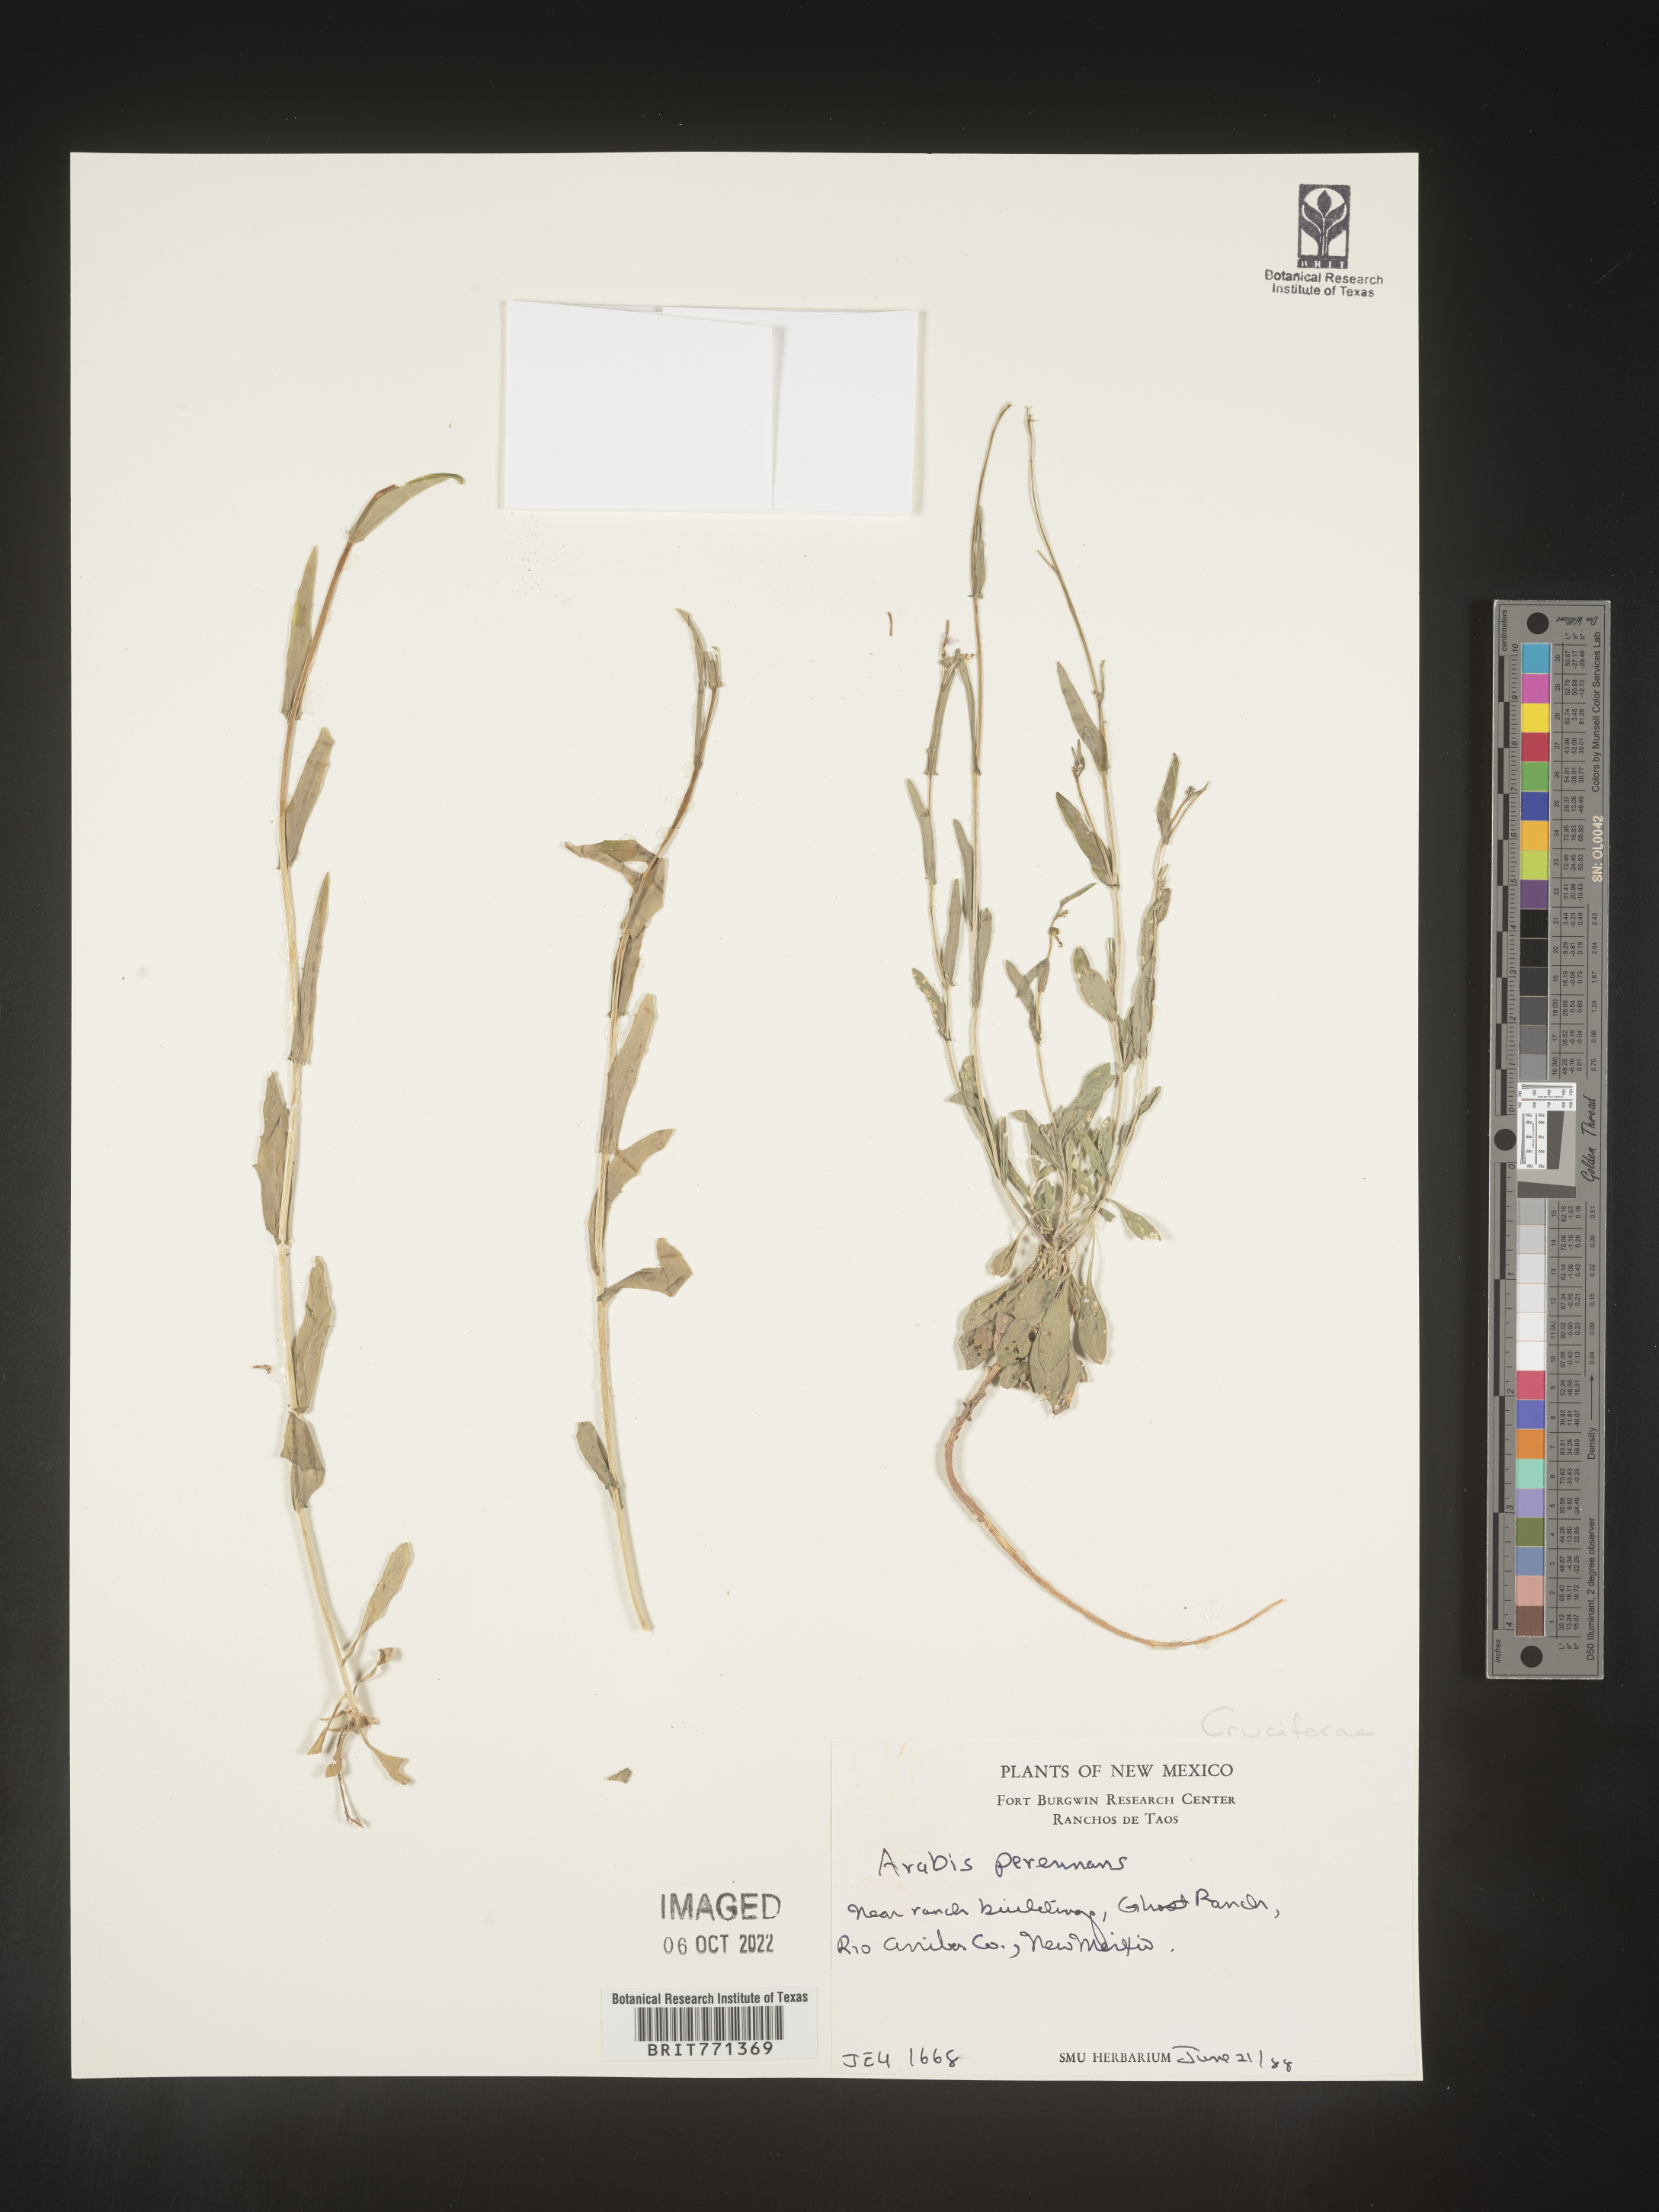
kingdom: Plantae
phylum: Tracheophyta
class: Magnoliopsida
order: Brassicales
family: Brassicaceae
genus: Arabis
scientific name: Arabis
